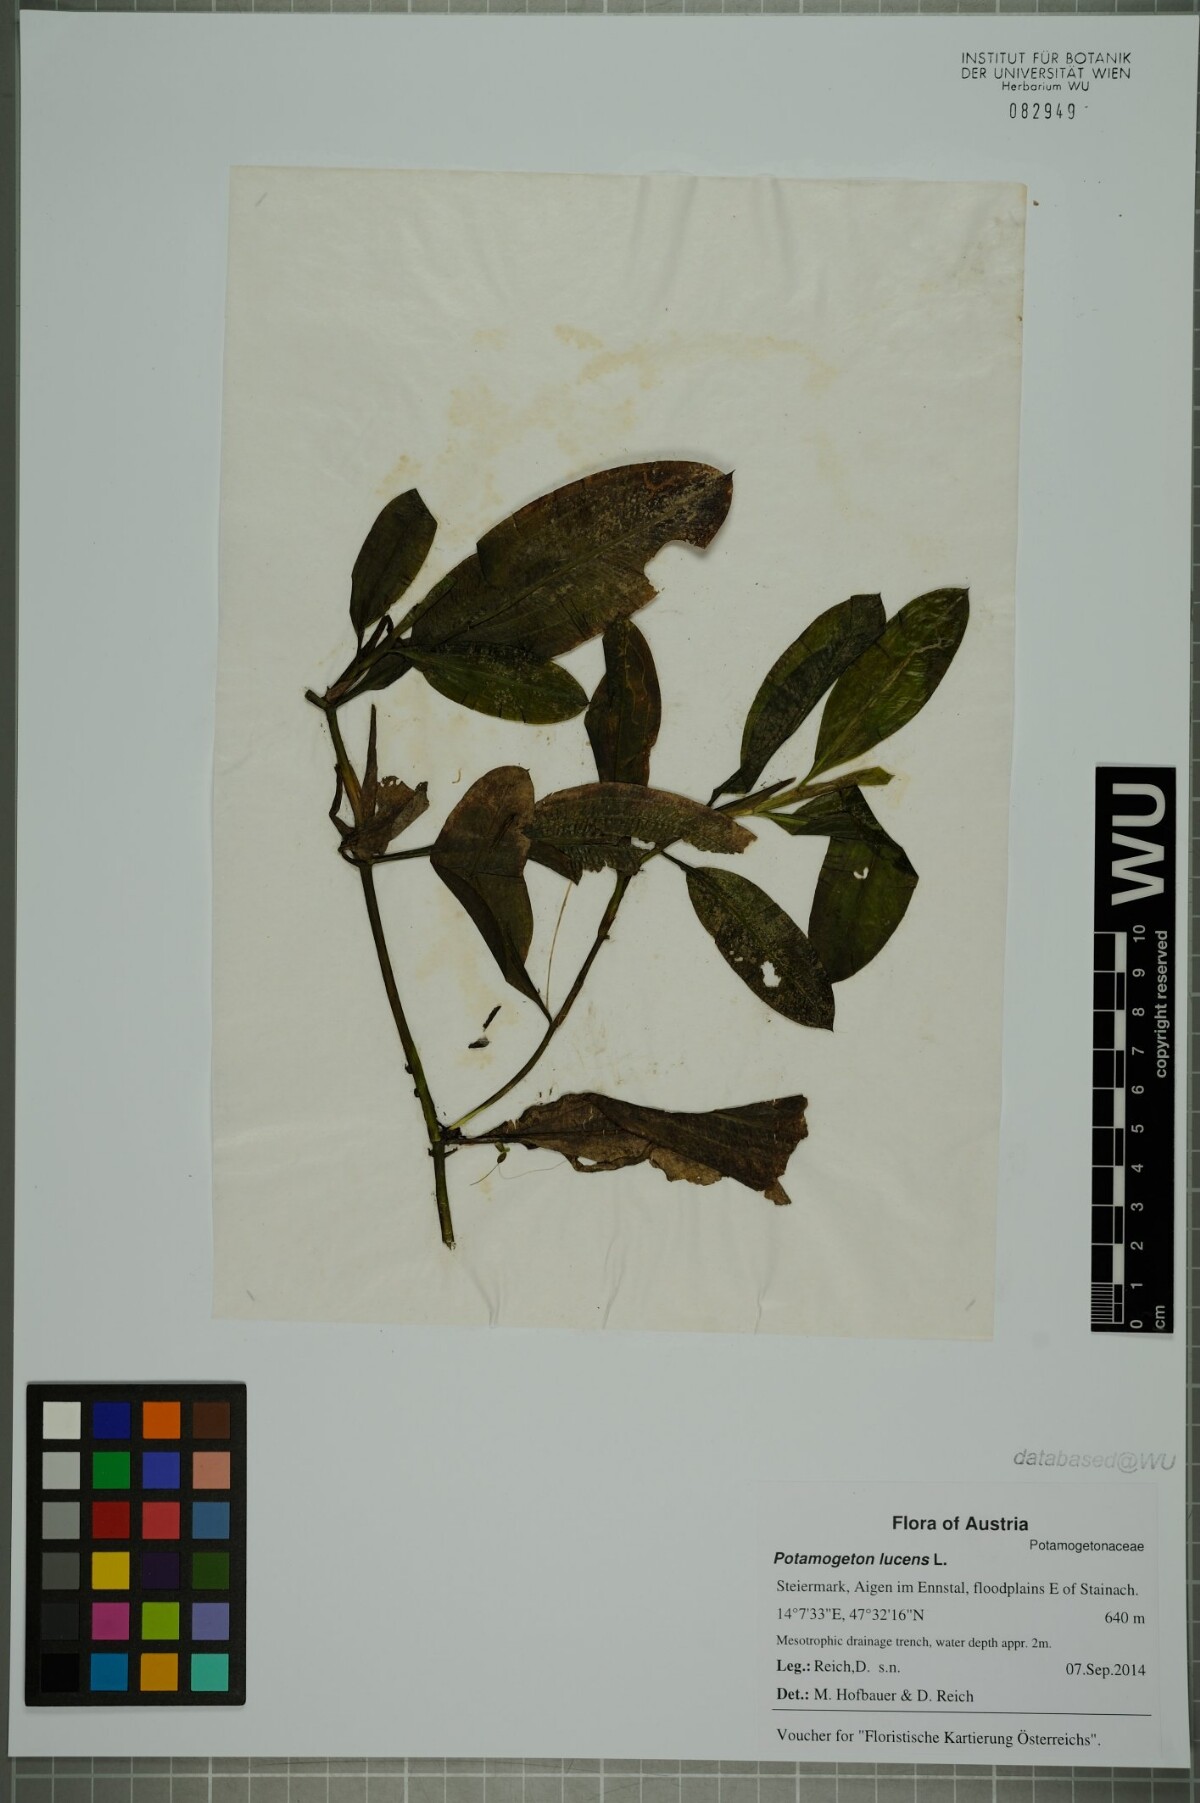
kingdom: Plantae
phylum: Tracheophyta
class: Liliopsida
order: Alismatales
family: Potamogetonaceae
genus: Potamogeton
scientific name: Potamogeton lucens
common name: Shining pondweed
